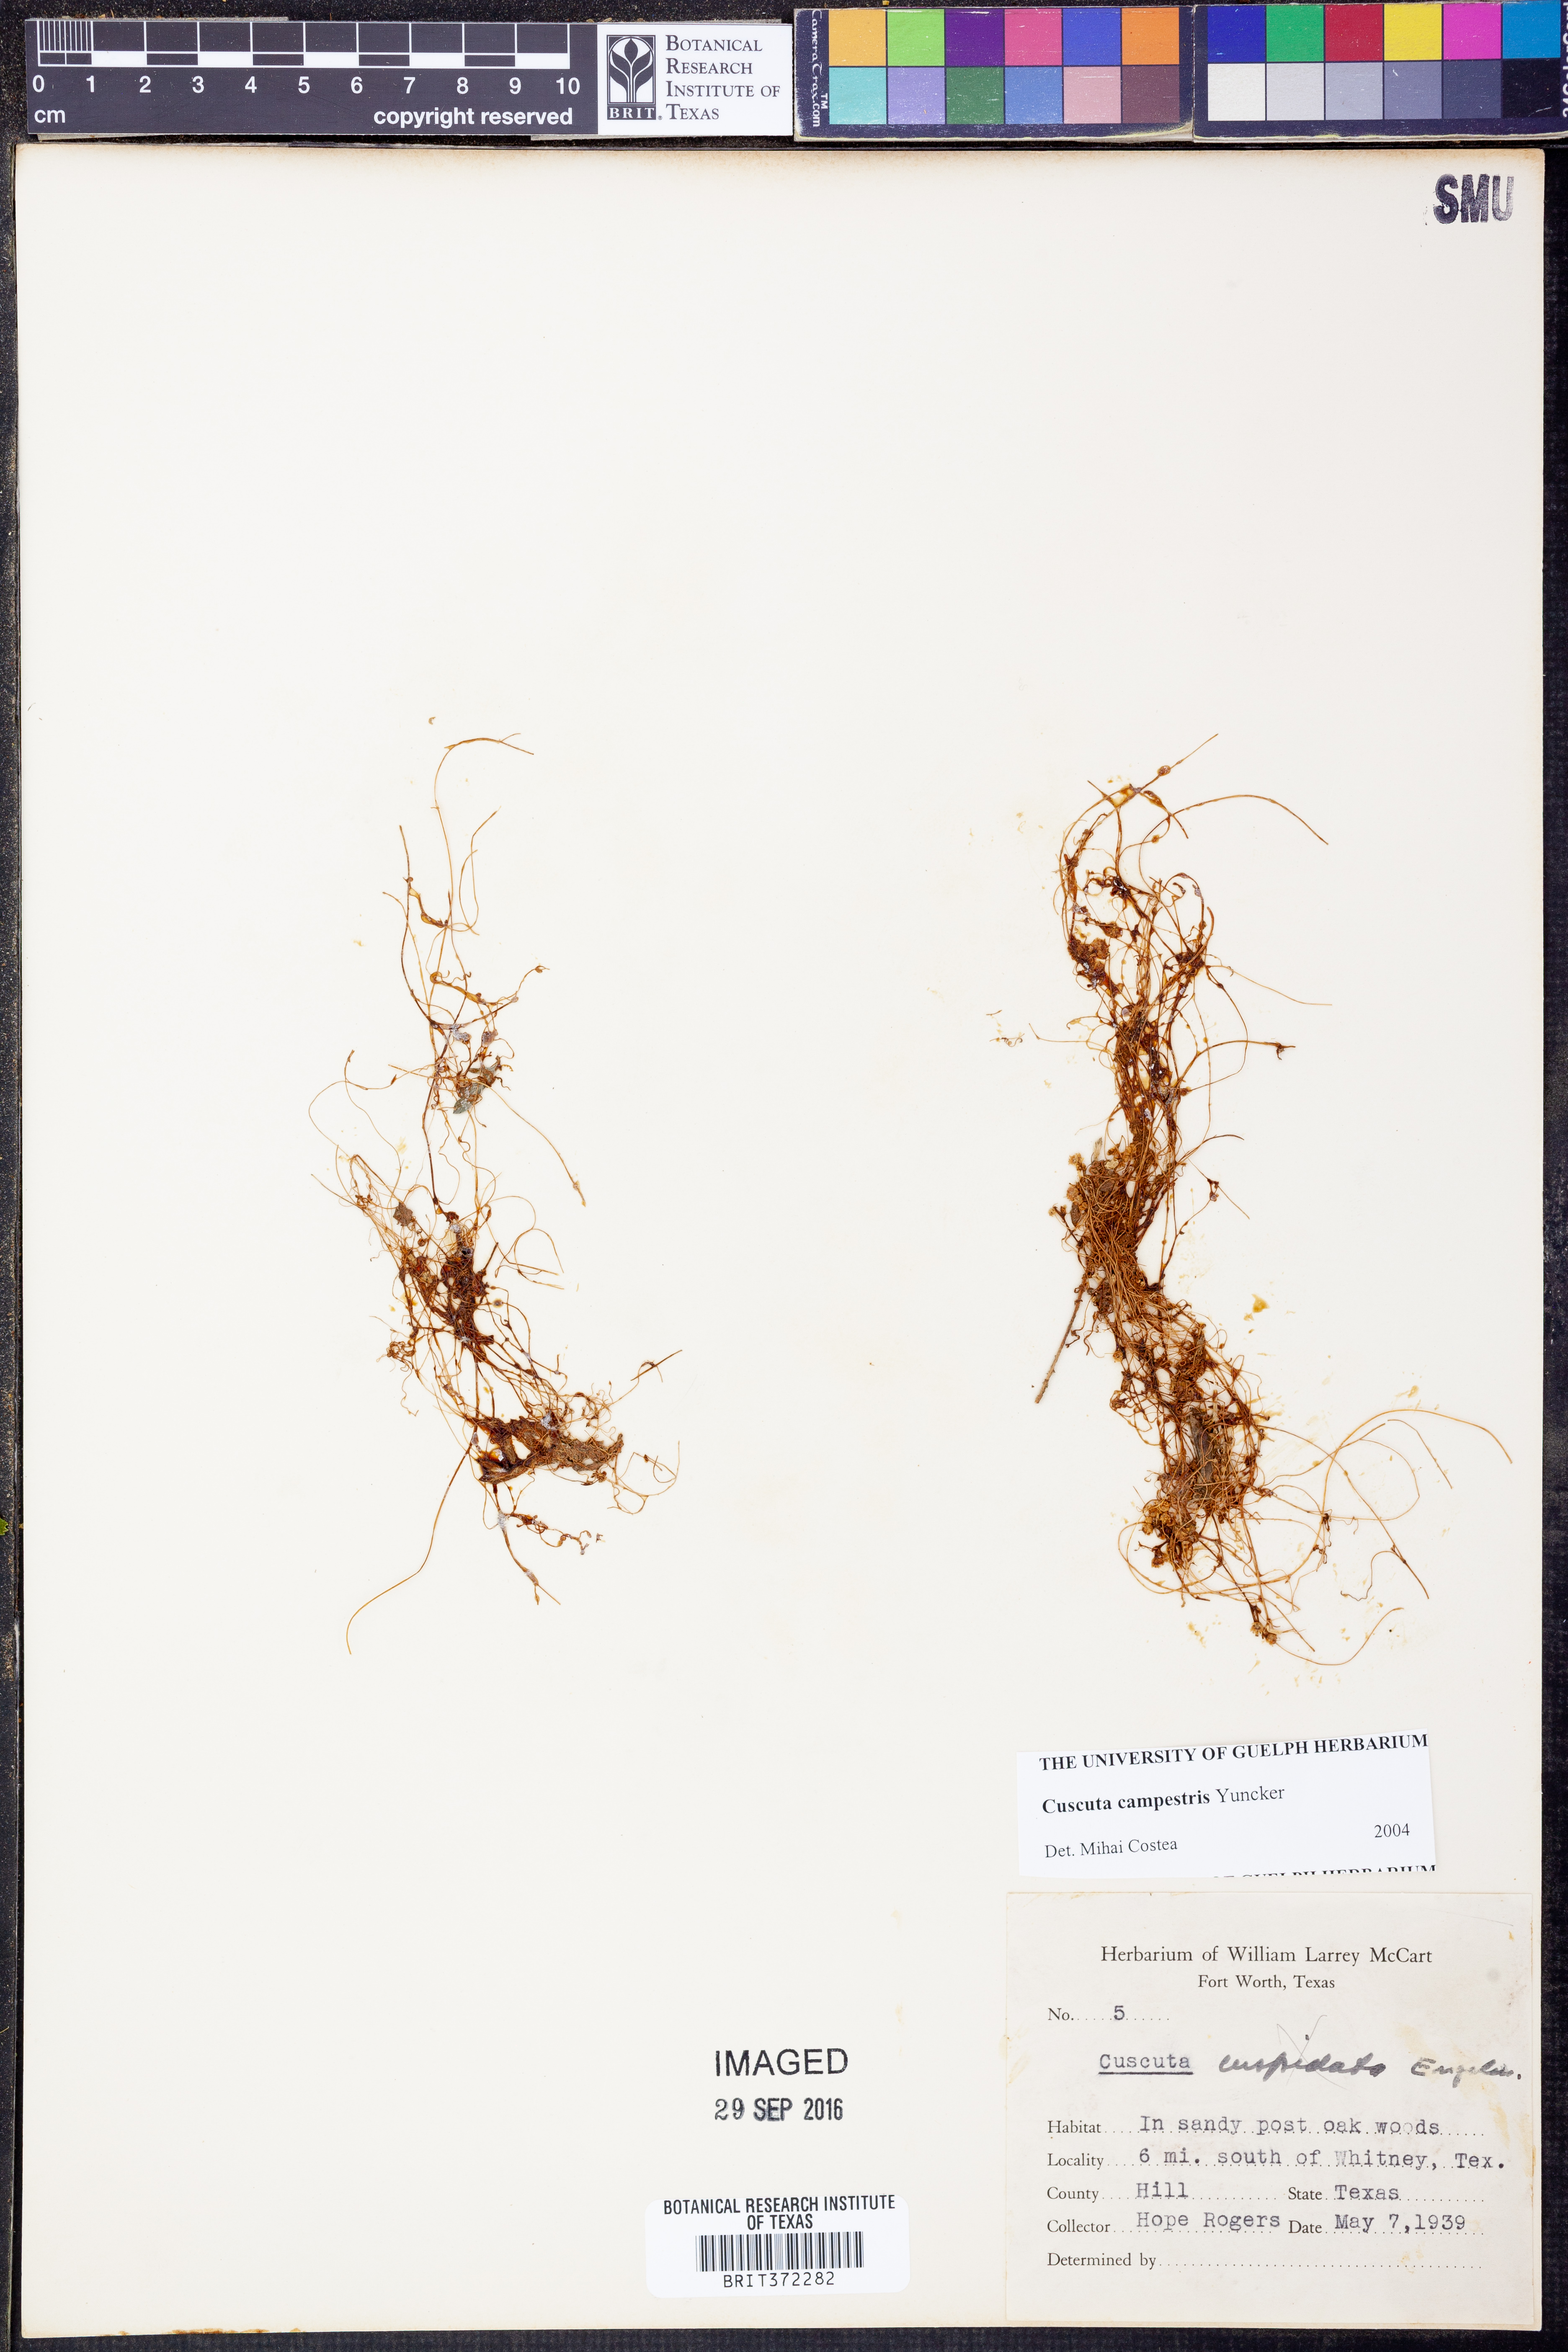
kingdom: Plantae
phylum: Tracheophyta
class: Magnoliopsida
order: Solanales
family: Convolvulaceae
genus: Cuscuta
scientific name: Cuscuta campestris
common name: Yellow dodder
